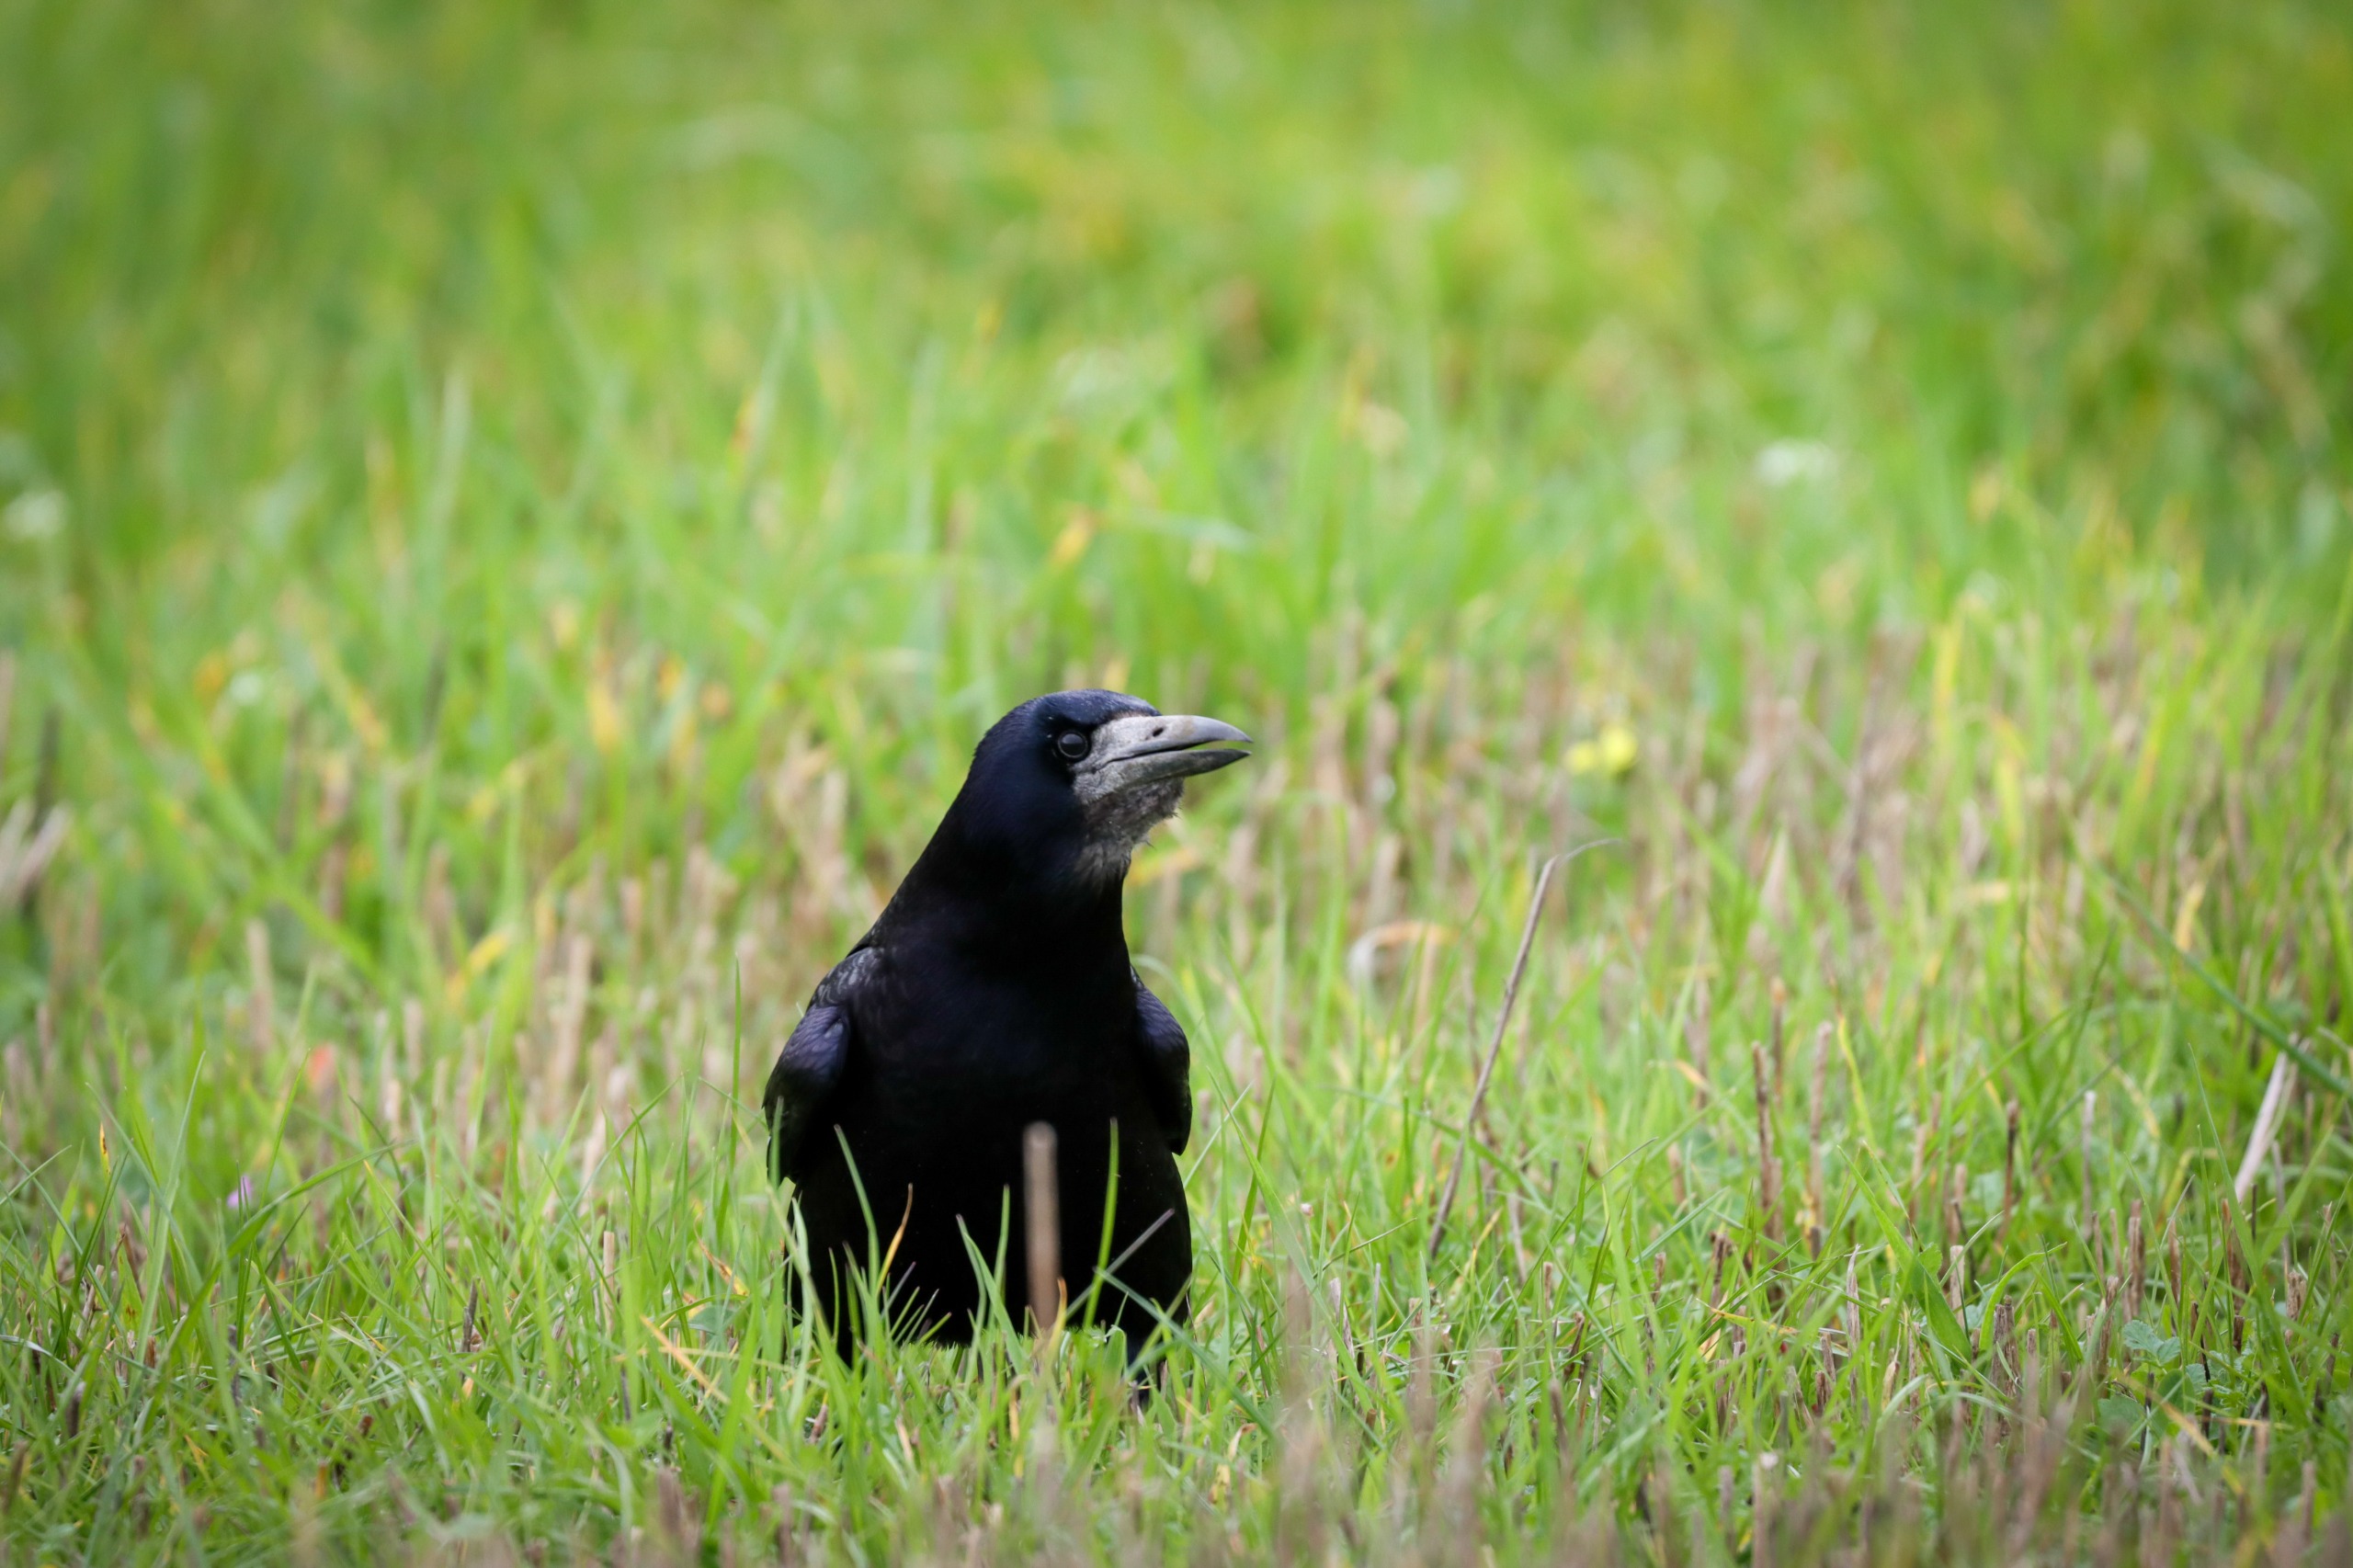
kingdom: Animalia
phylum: Chordata
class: Aves
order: Passeriformes
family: Corvidae
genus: Corvus
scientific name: Corvus frugilegus
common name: Råge
